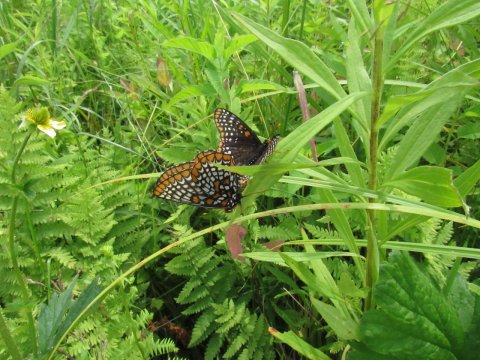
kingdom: Animalia
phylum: Arthropoda
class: Insecta
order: Lepidoptera
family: Nymphalidae
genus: Euphydryas
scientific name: Euphydryas phaeton
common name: Baltimore Checkerspot
